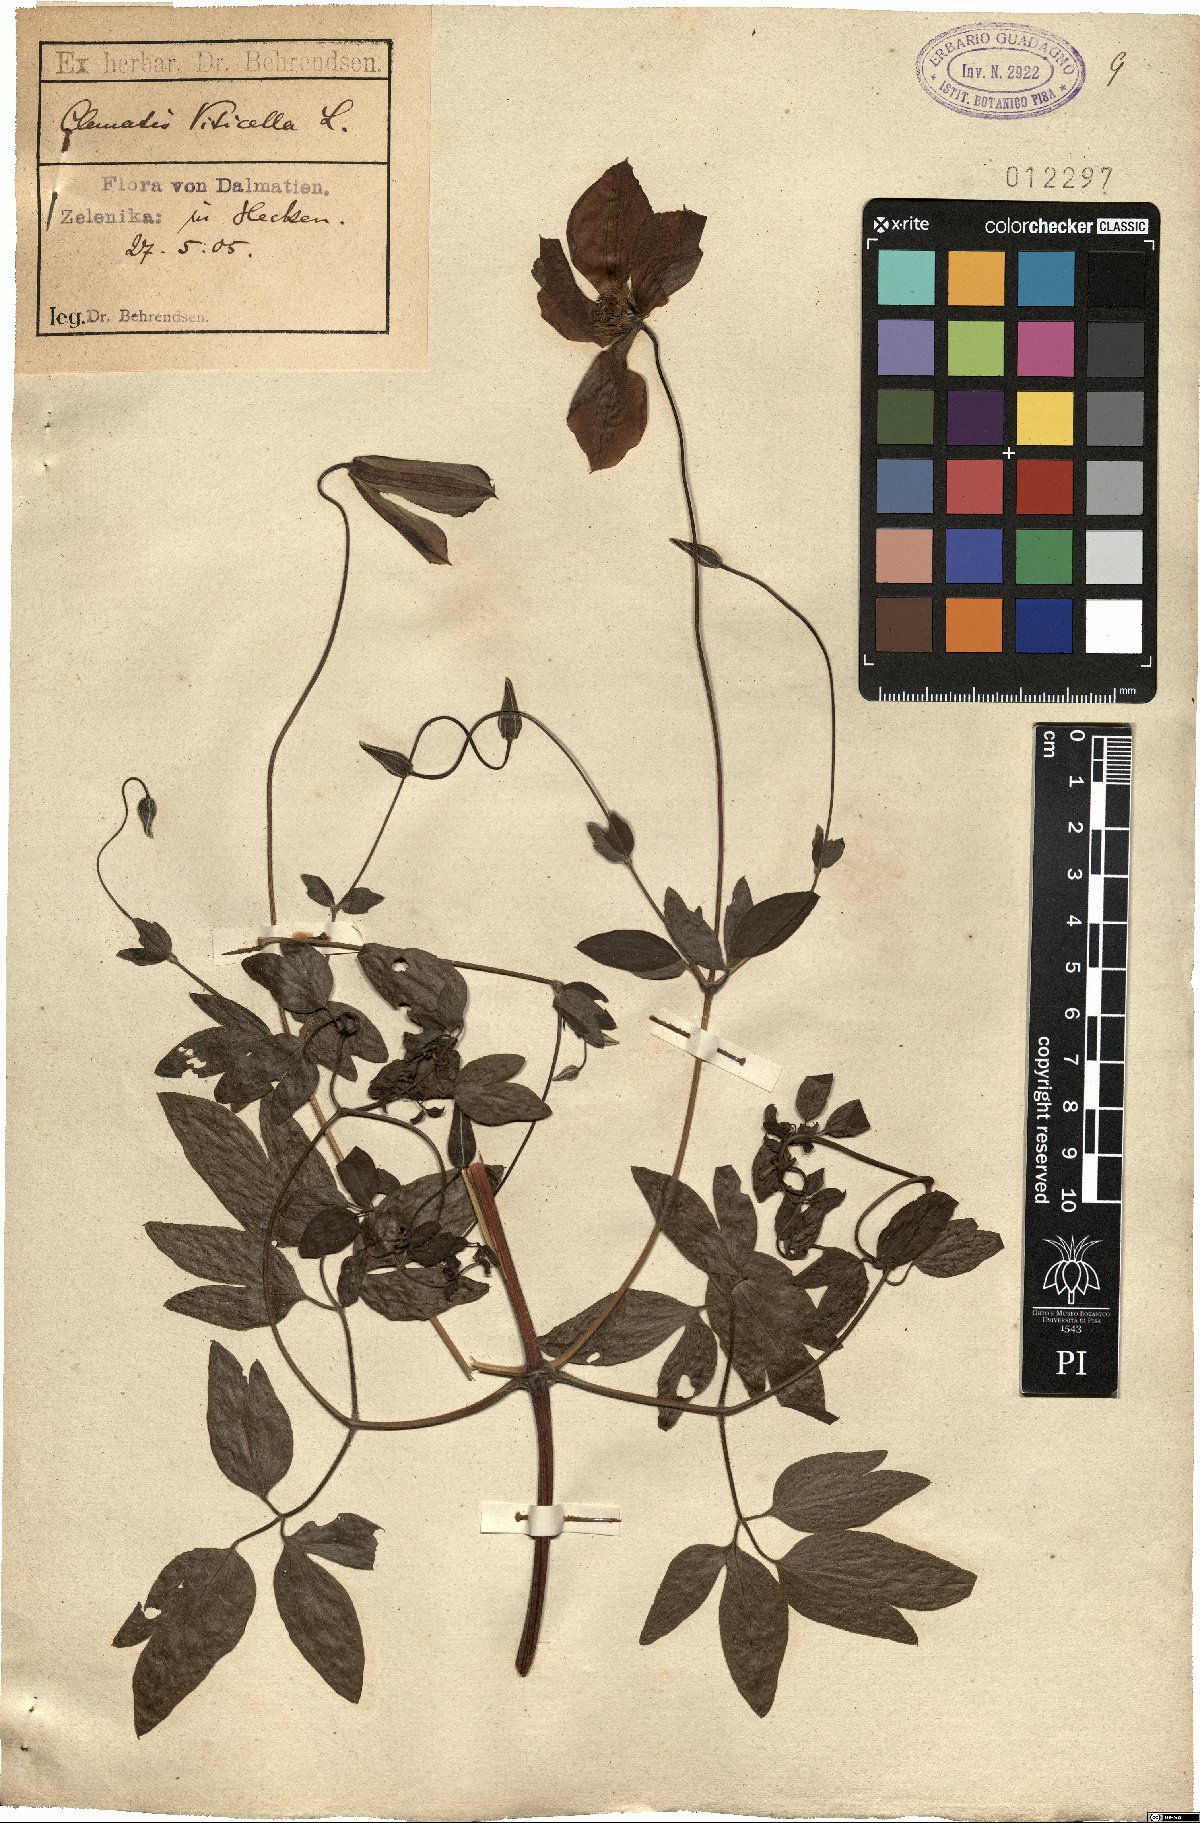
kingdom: Plantae
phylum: Tracheophyta
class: Magnoliopsida
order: Ranunculales
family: Ranunculaceae
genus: Clematis
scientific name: Clematis viticella
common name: Purple clematis
